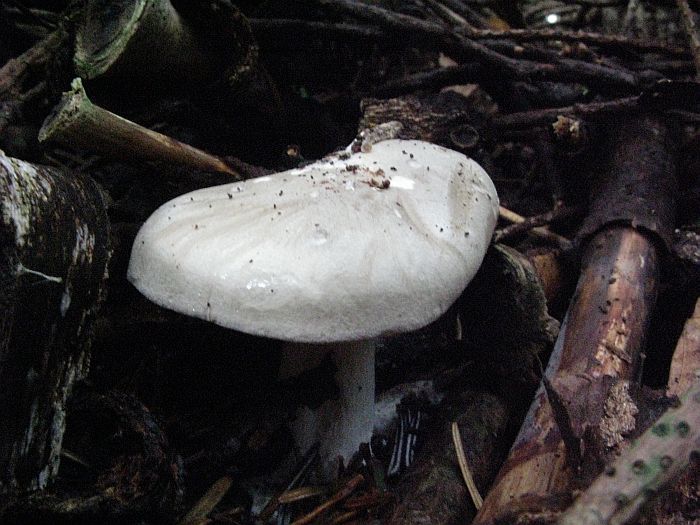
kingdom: Fungi
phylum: Basidiomycota
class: Agaricomycetes
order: Agaricales
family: Tricholomataceae
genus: Clitocybe
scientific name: Clitocybe nebularis
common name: tåge-tragthat
